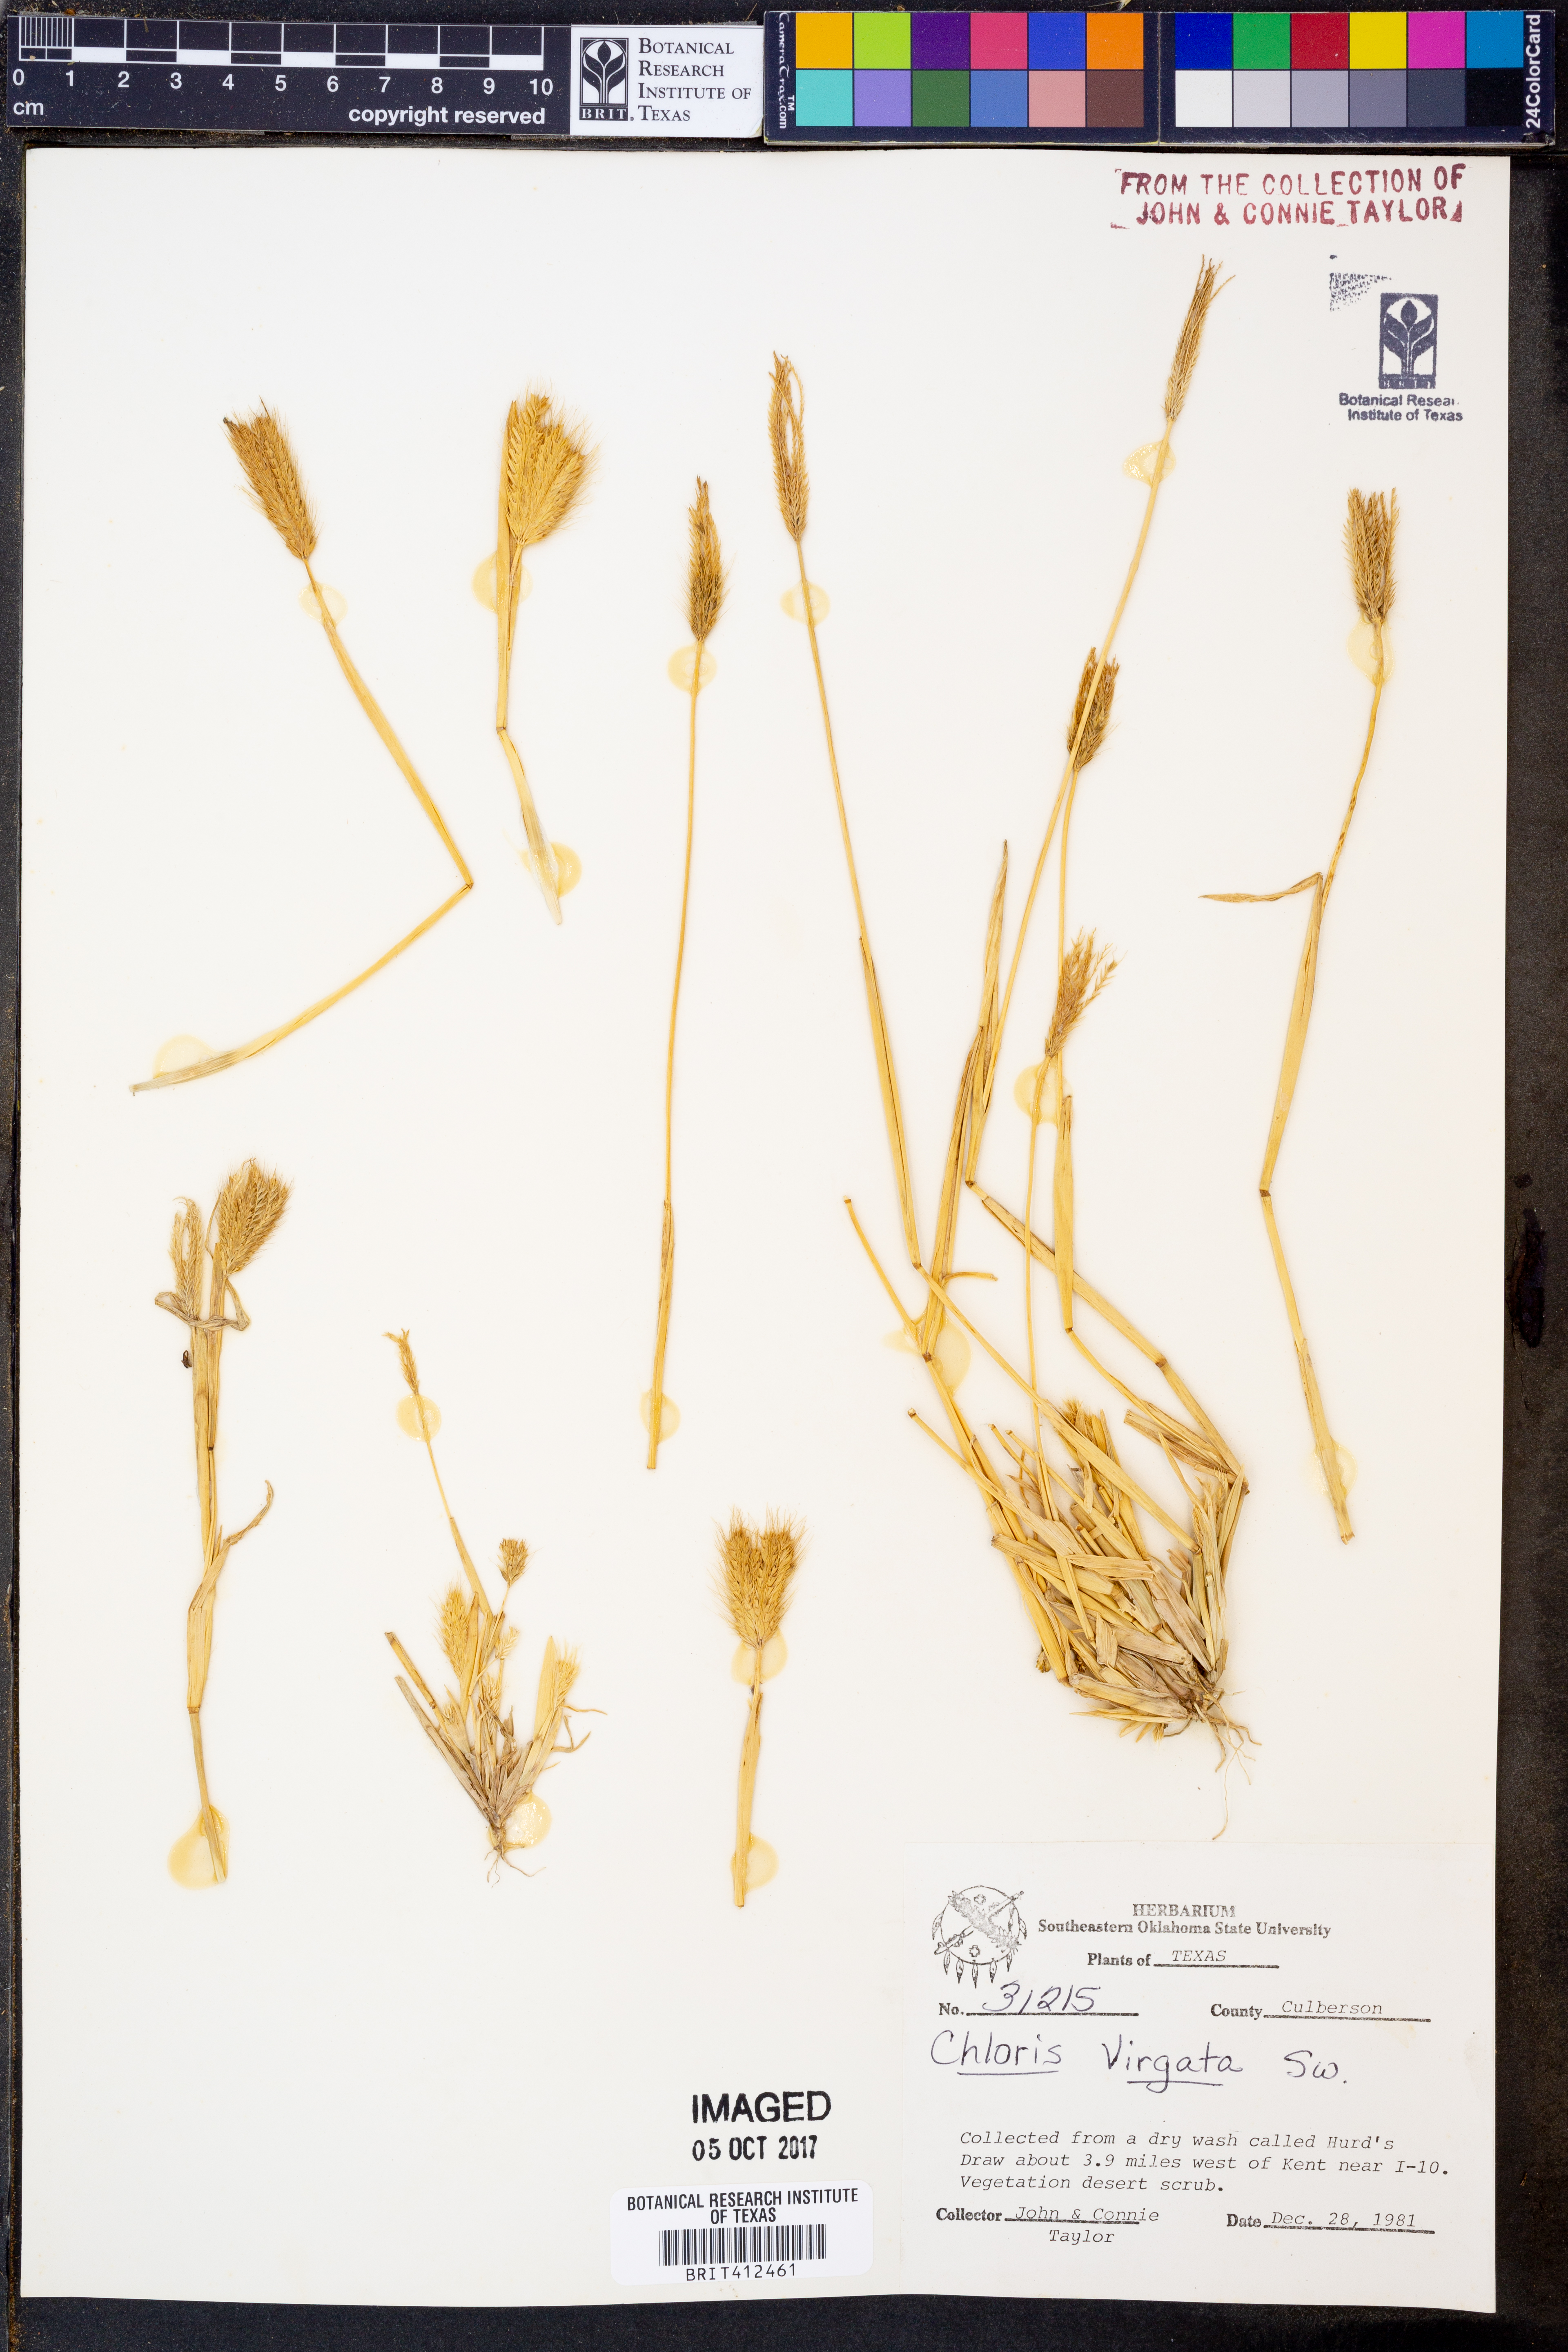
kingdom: Plantae
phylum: Tracheophyta
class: Liliopsida
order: Poales
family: Poaceae
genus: Chloris
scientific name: Chloris virgata
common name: Feathery rhodes-grass
